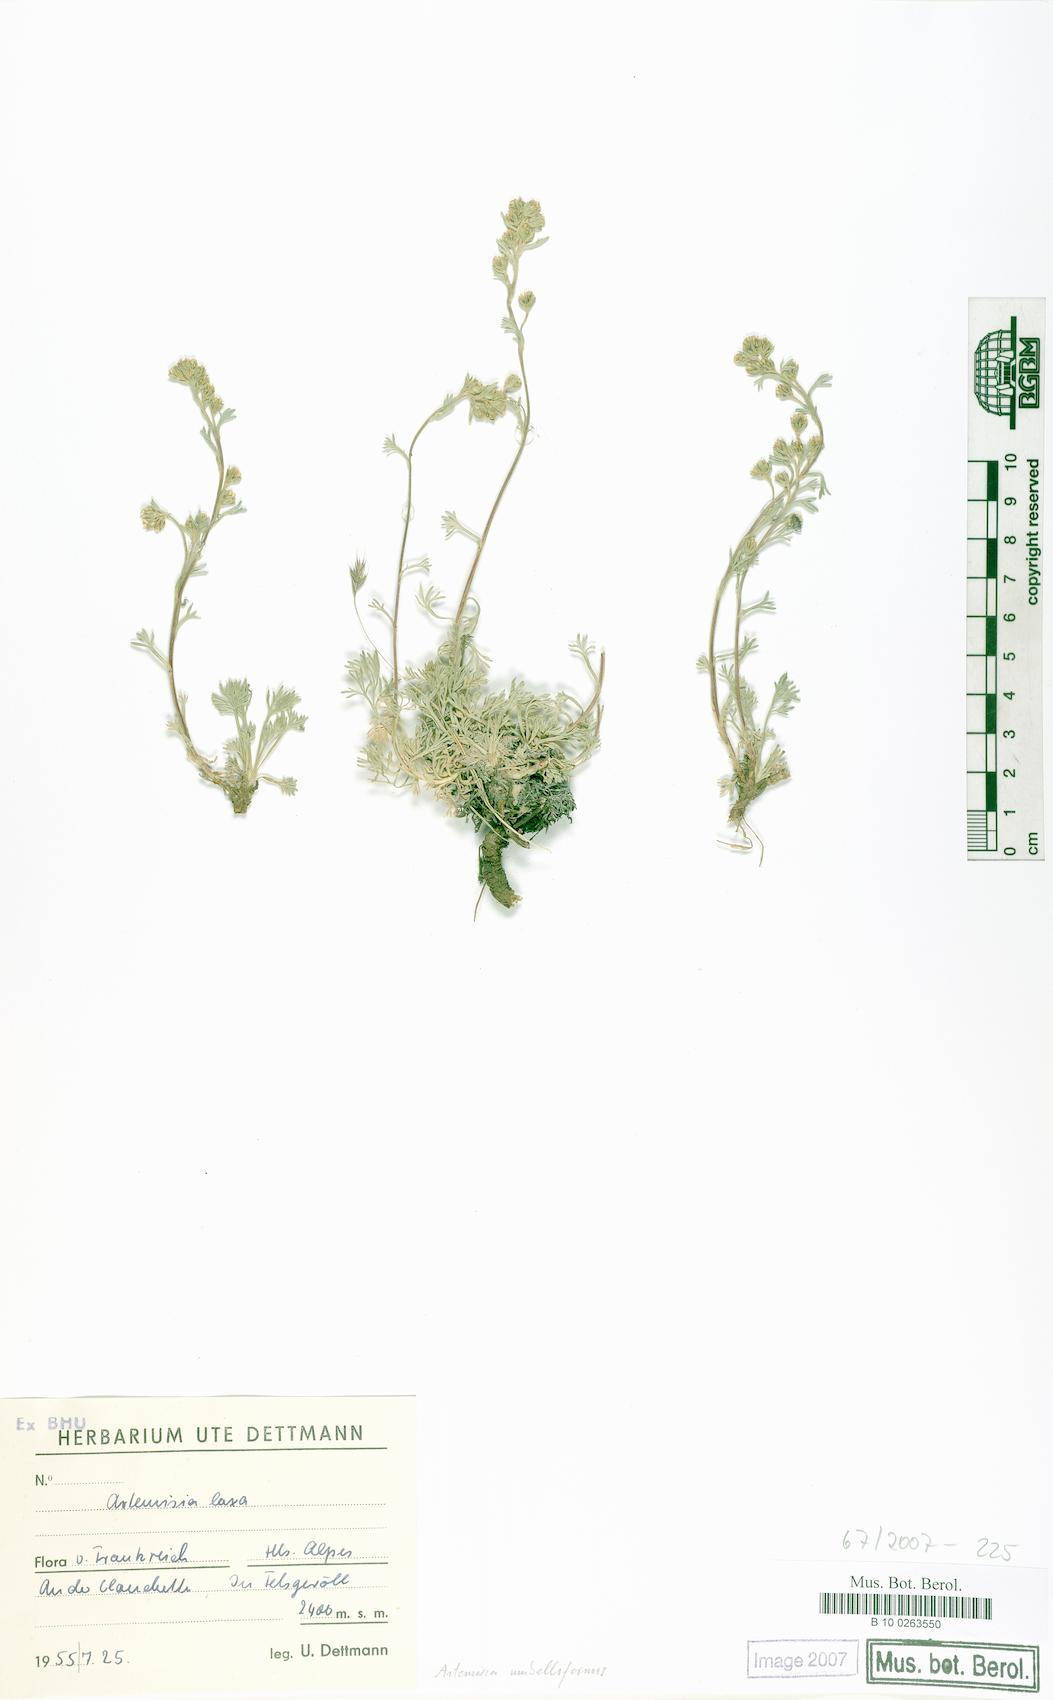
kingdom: Plantae
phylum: Tracheophyta
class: Magnoliopsida
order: Asterales
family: Asteraceae
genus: Artemisia
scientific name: Artemisia umbelliformis
